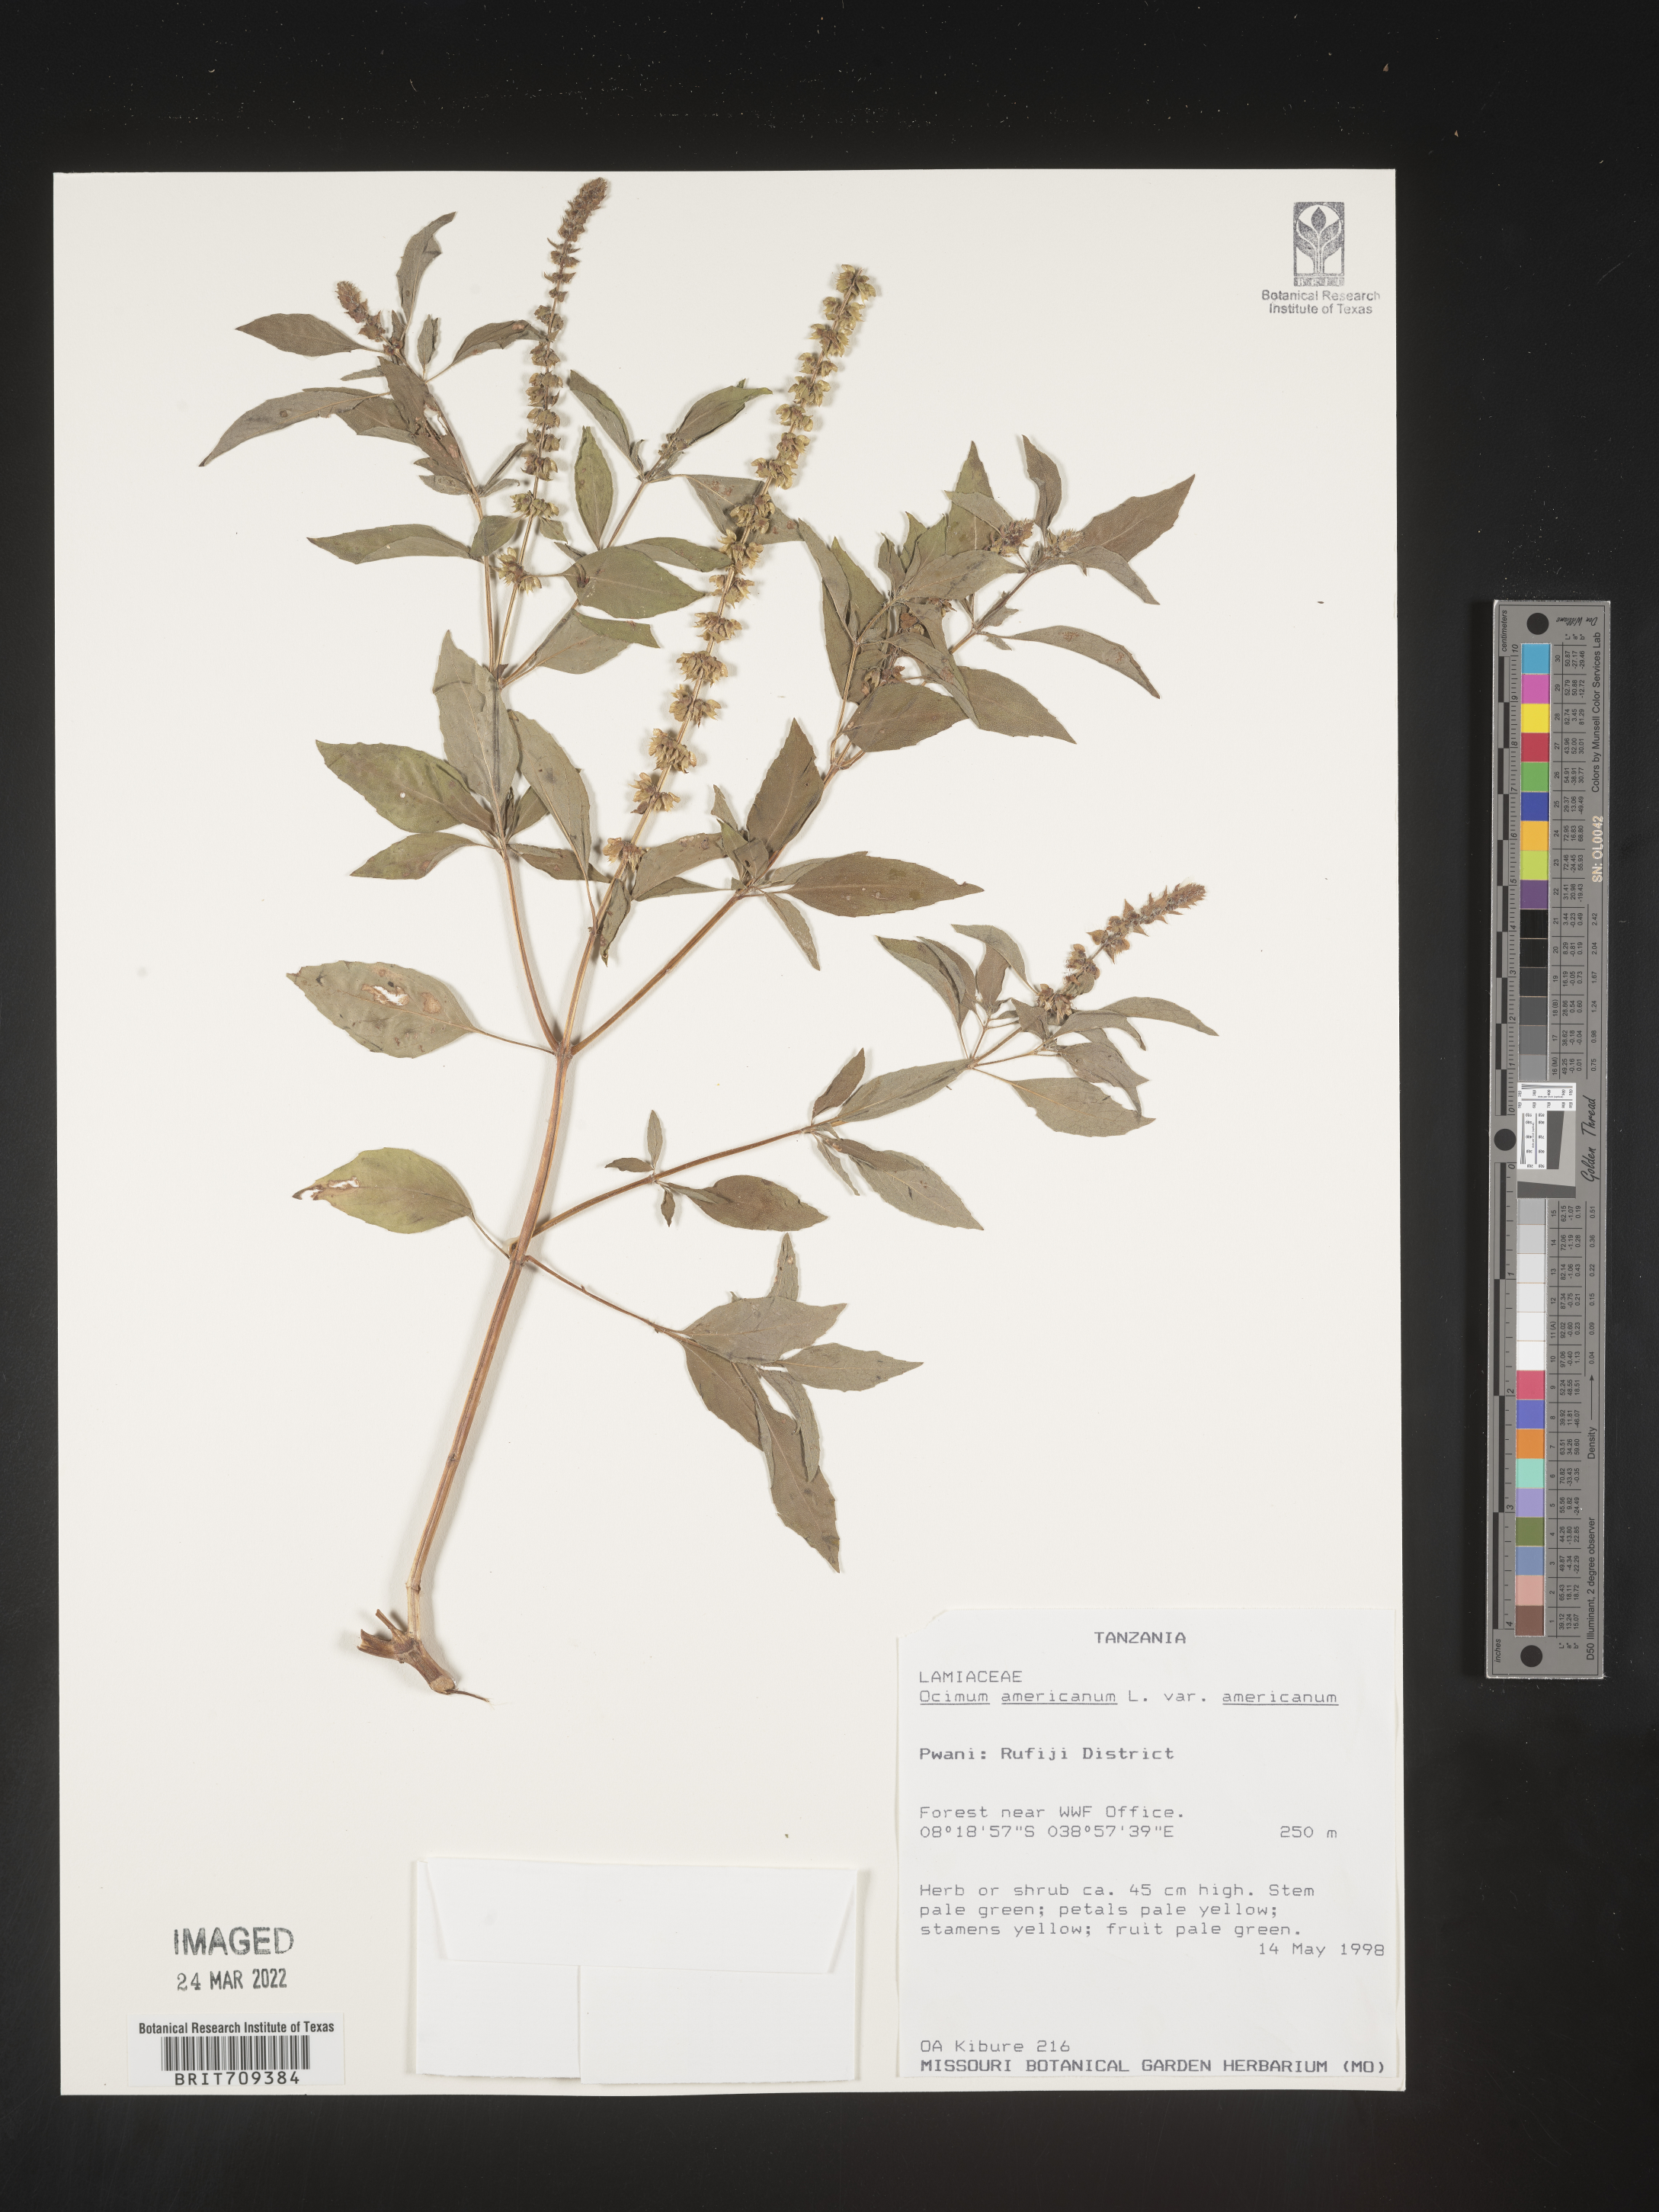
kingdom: Plantae
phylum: Tracheophyta
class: Magnoliopsida
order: Lamiales
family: Lamiaceae
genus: Ocimum
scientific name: Ocimum
